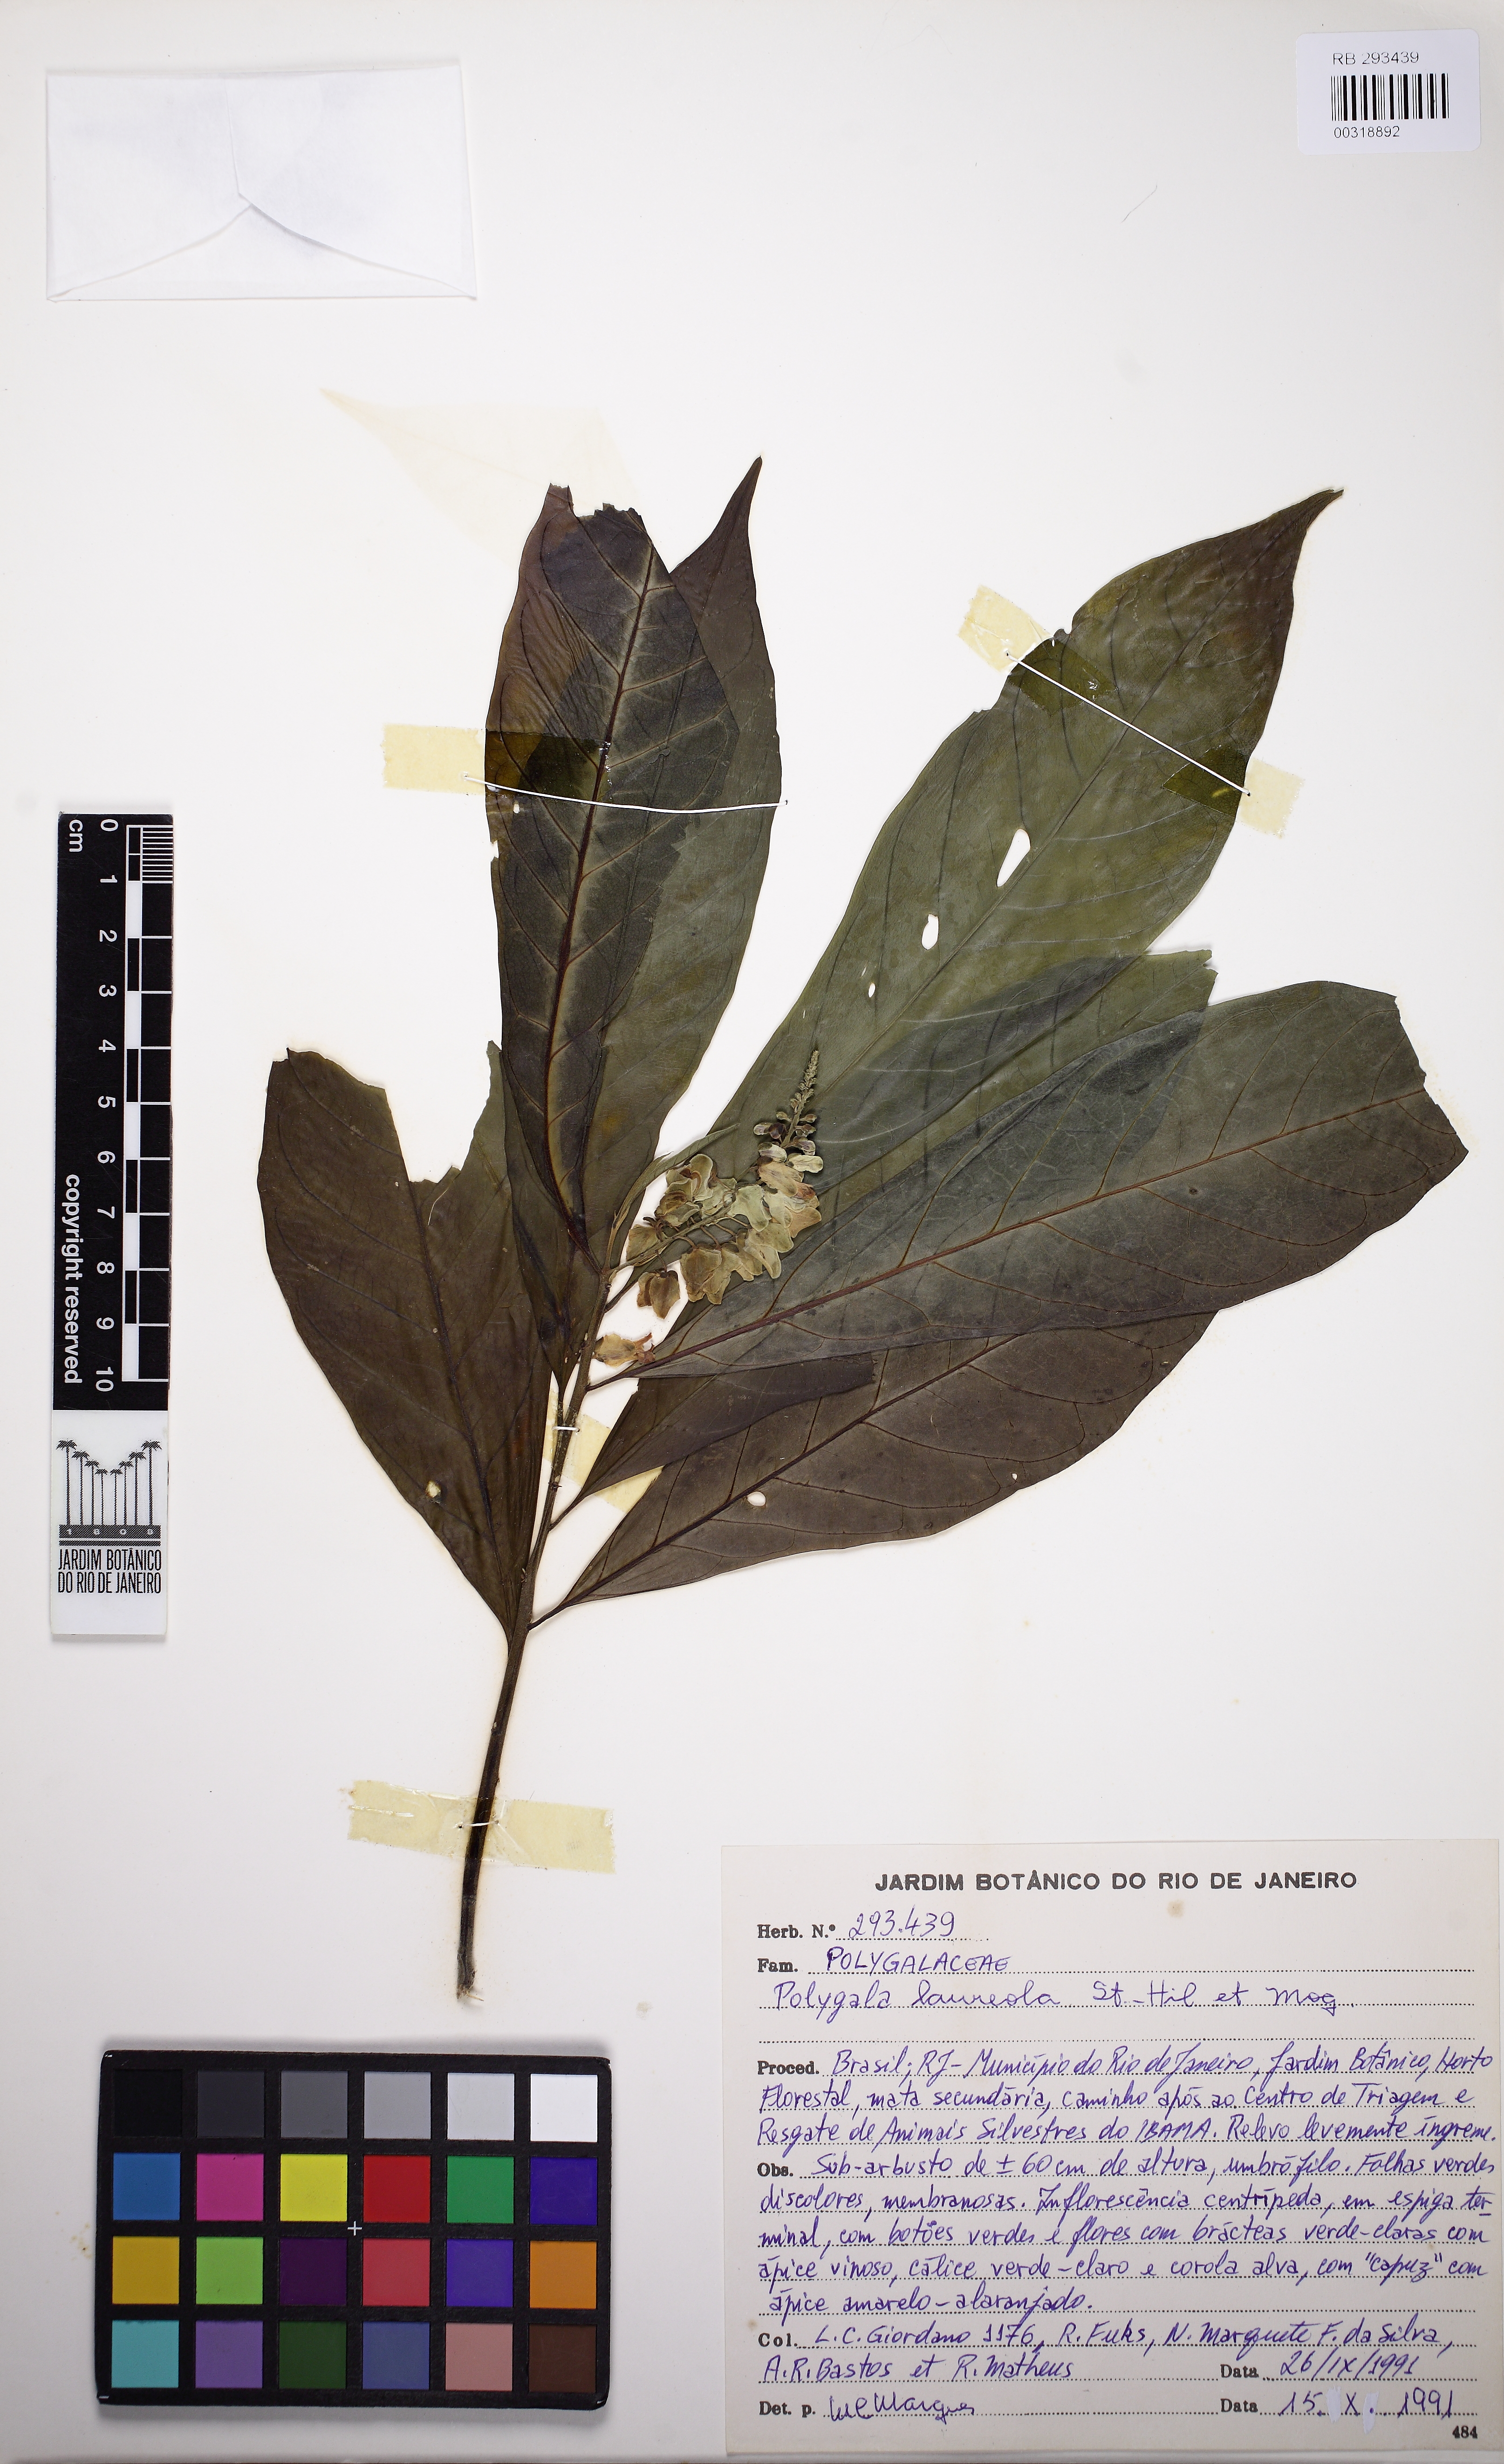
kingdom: Plantae
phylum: Tracheophyta
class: Magnoliopsida
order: Fabales
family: Polygalaceae
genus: Caamembeca
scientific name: Caamembeca salicifolia
